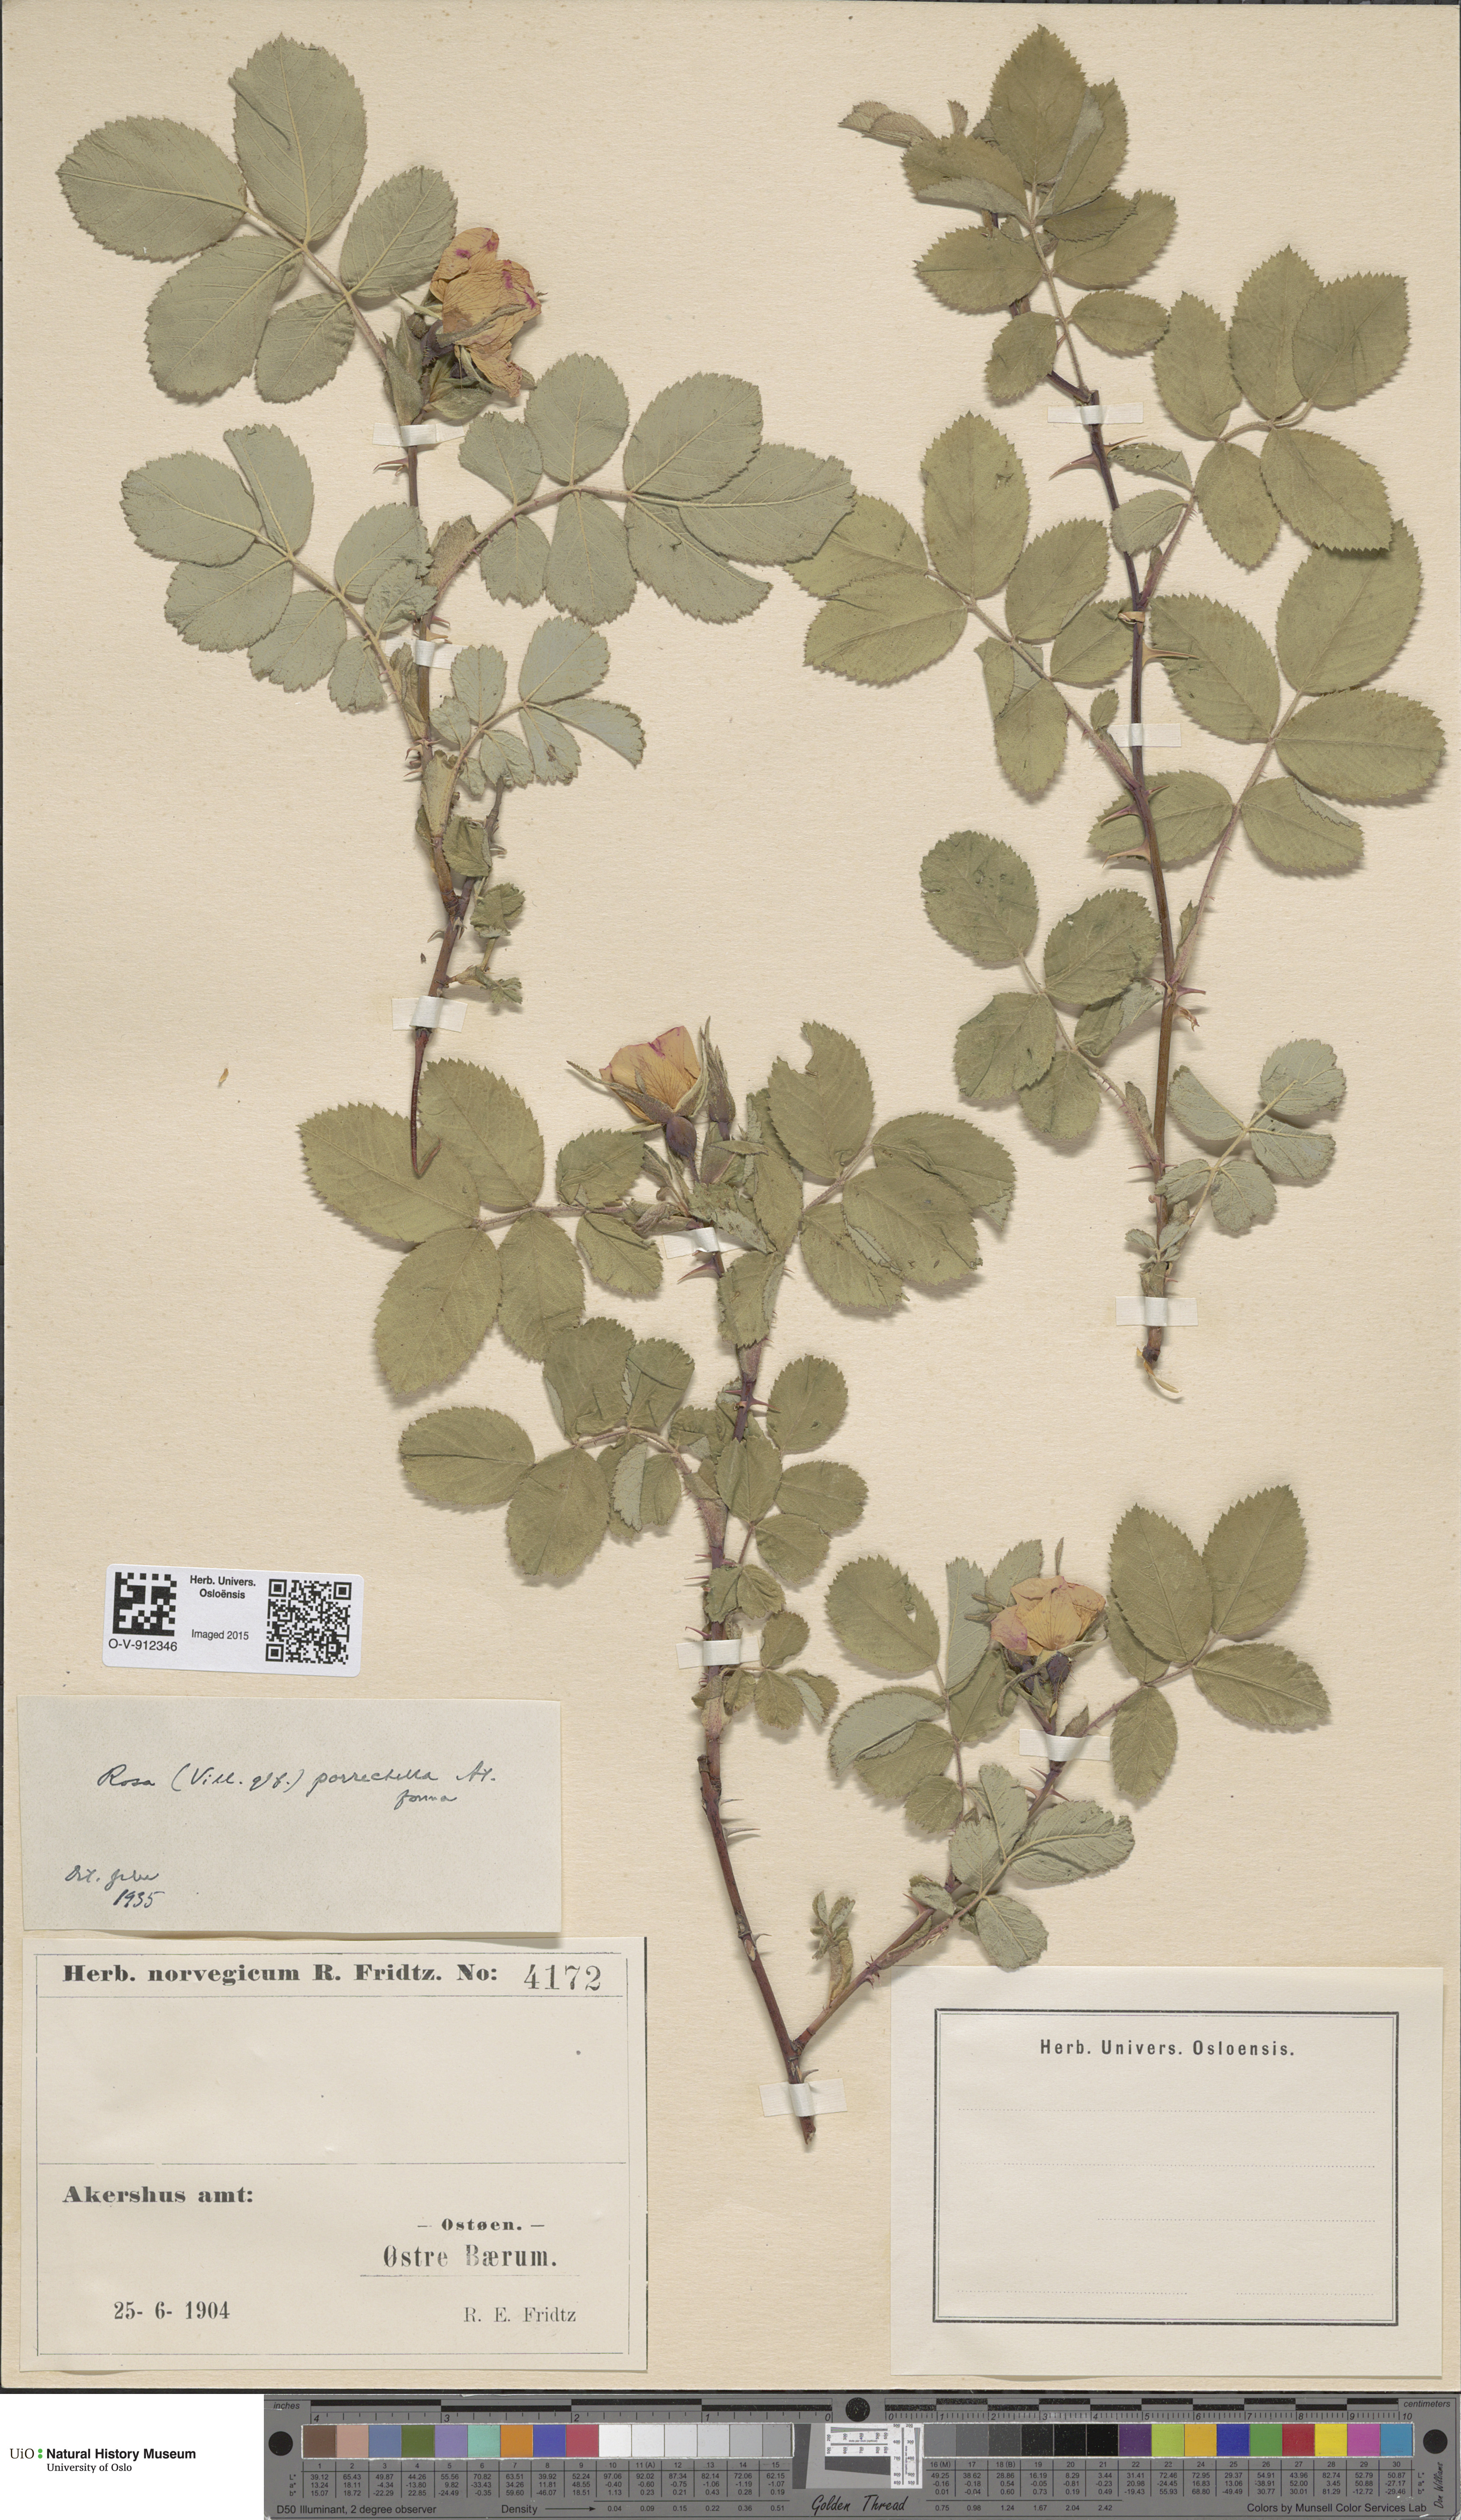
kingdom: Plantae
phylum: Tracheophyta
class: Magnoliopsida
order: Rosales
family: Rosaceae
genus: Rosa
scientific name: Rosa mollis
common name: Rose
